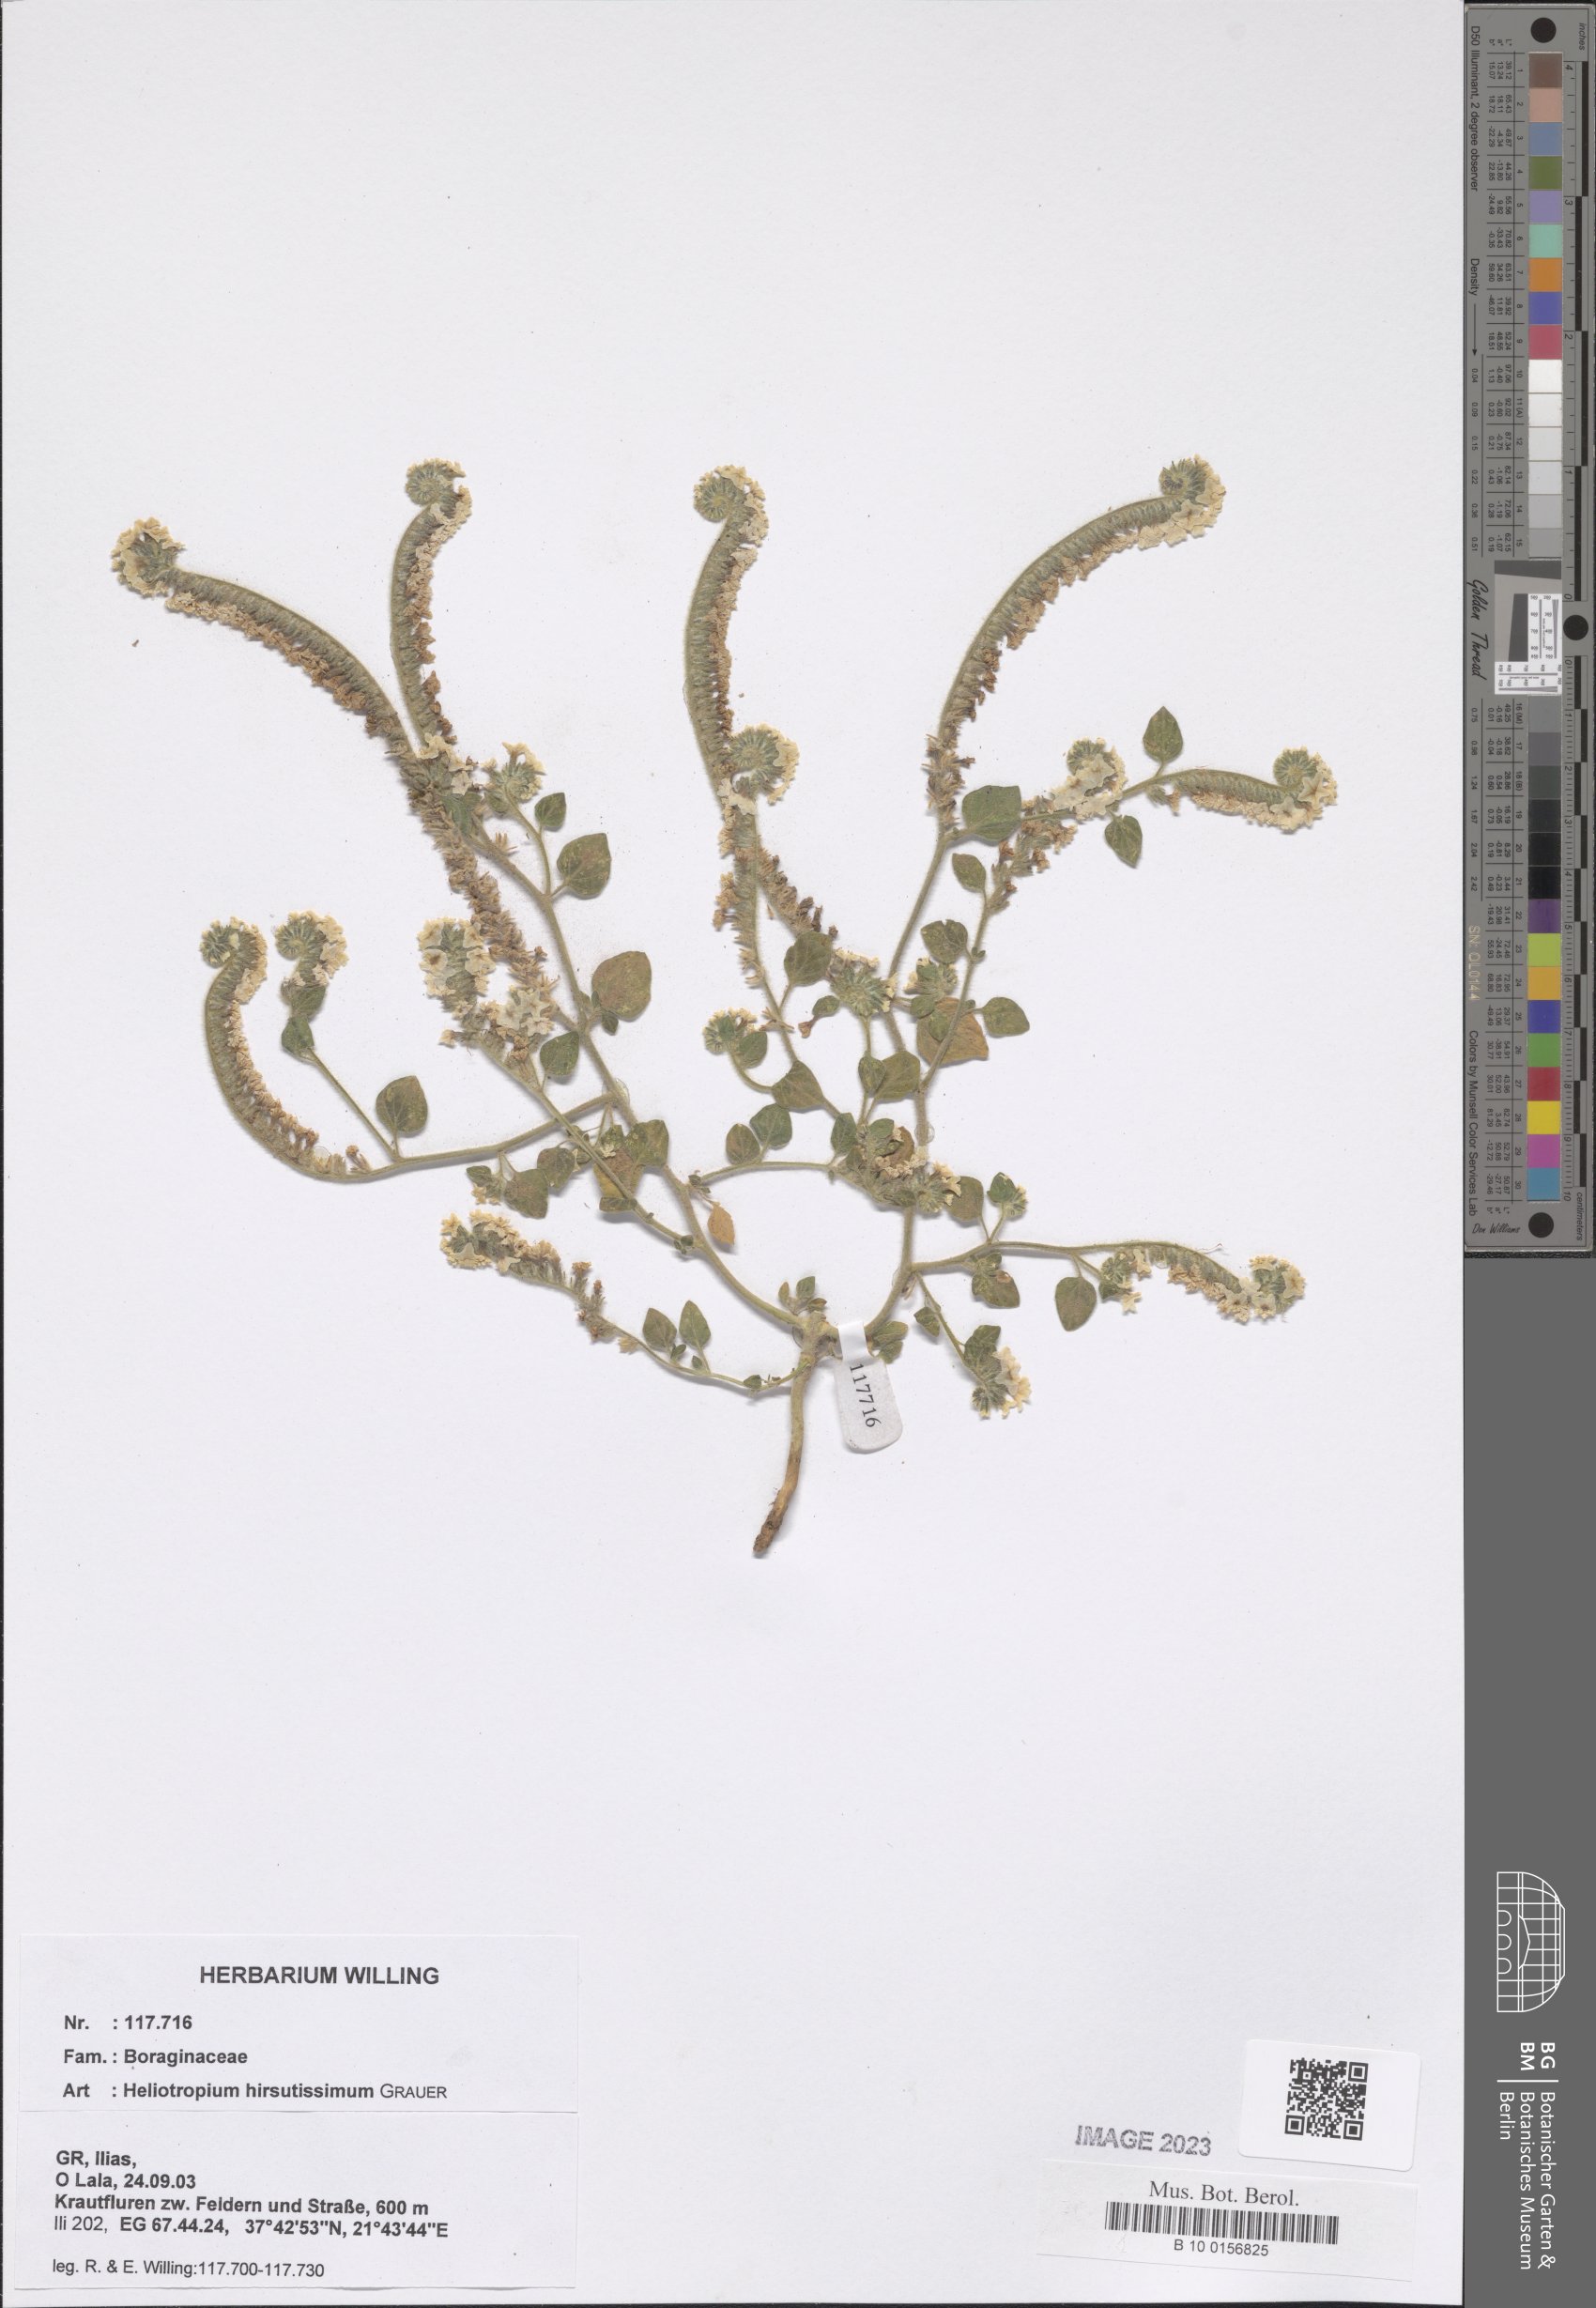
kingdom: Plantae
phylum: Tracheophyta
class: Magnoliopsida
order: Boraginales
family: Heliotropiaceae
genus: Heliotropium
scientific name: Heliotropium hirsutissimum
